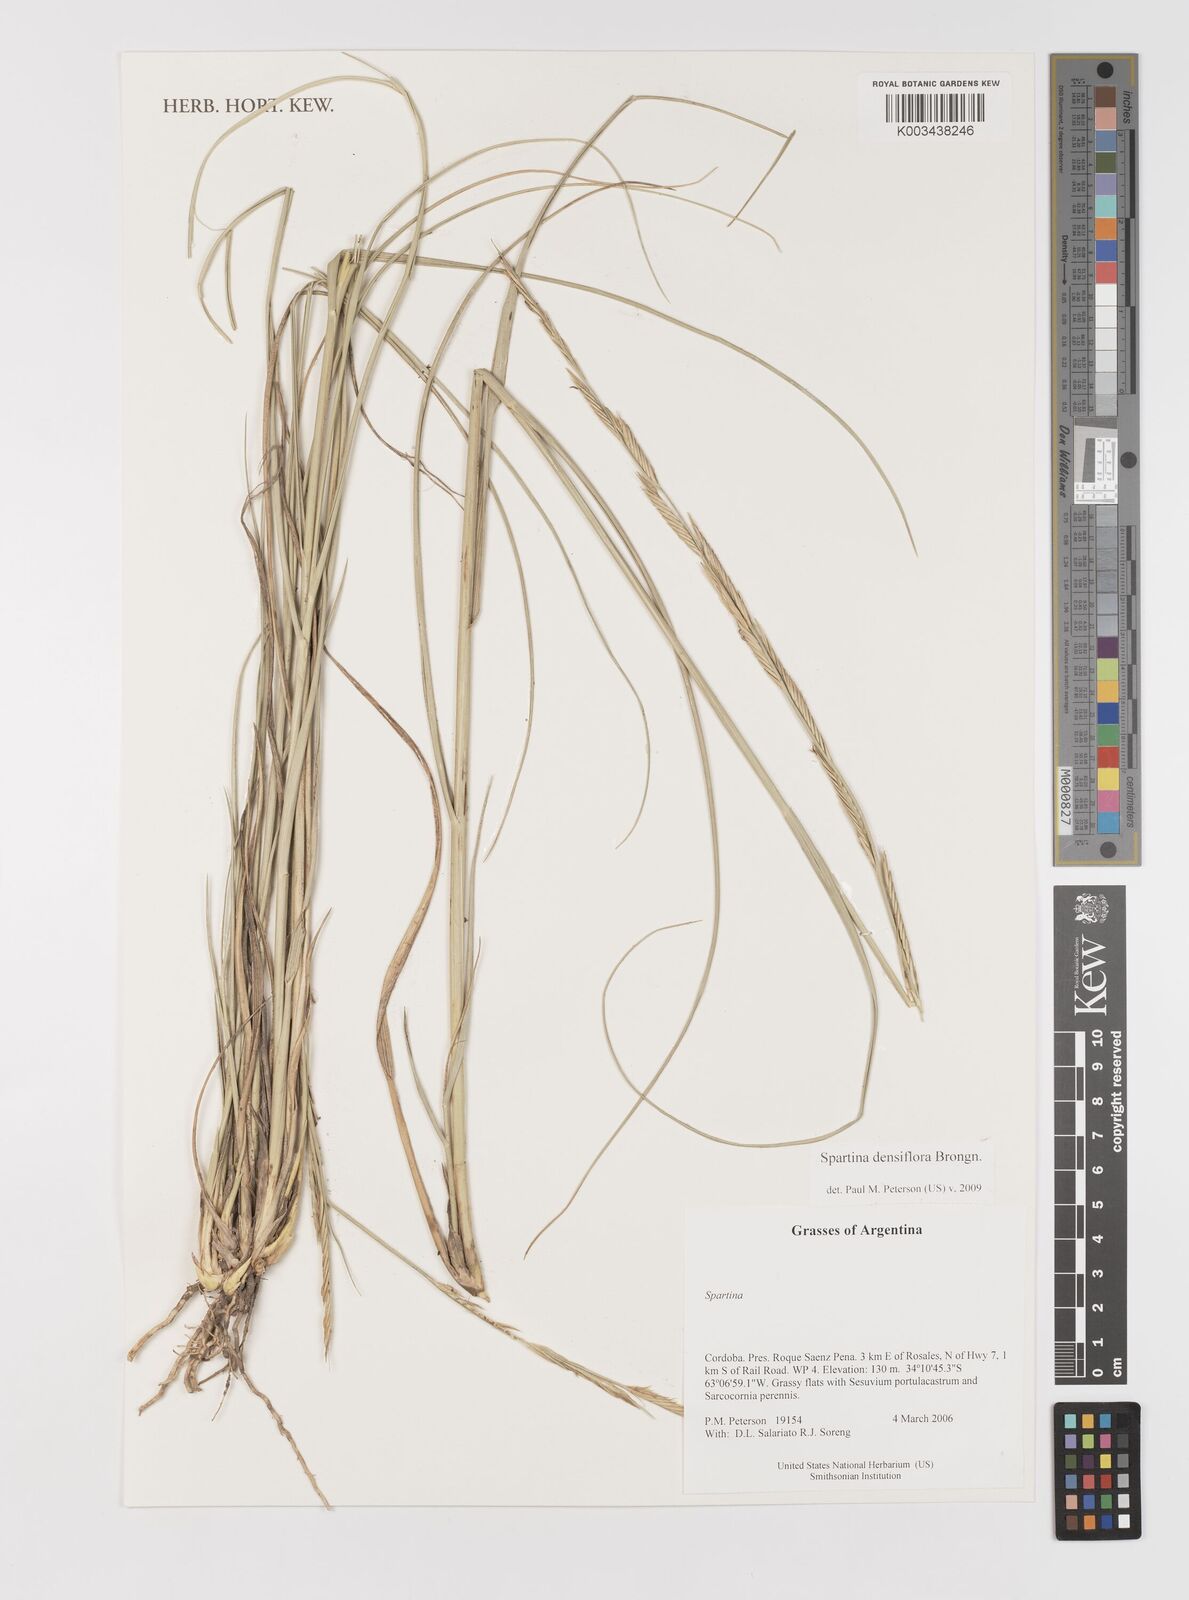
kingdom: Plantae
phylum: Tracheophyta
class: Liliopsida
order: Poales
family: Poaceae
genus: Sporobolus
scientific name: Sporobolus montevidensis
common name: Montevideo dropseed
